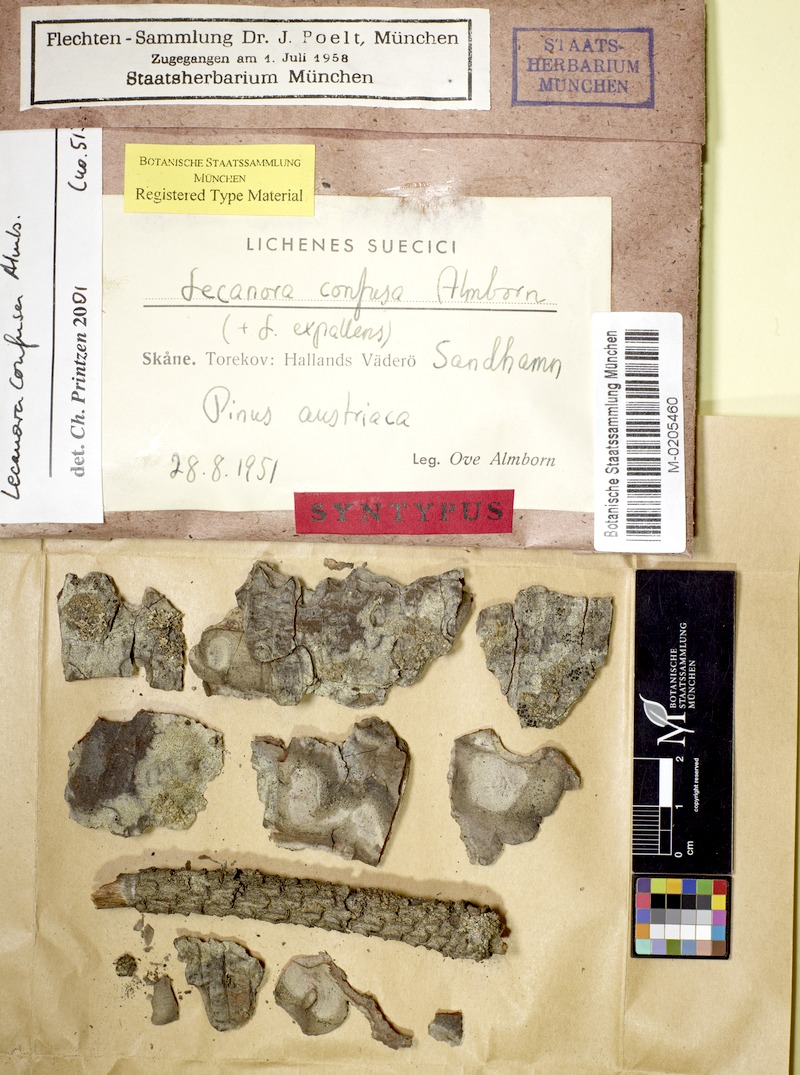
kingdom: Fungi
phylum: Ascomycota
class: Lecanoromycetes
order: Lecanorales
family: Lecanoraceae
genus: Lecanora
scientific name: Lecanora expallens
